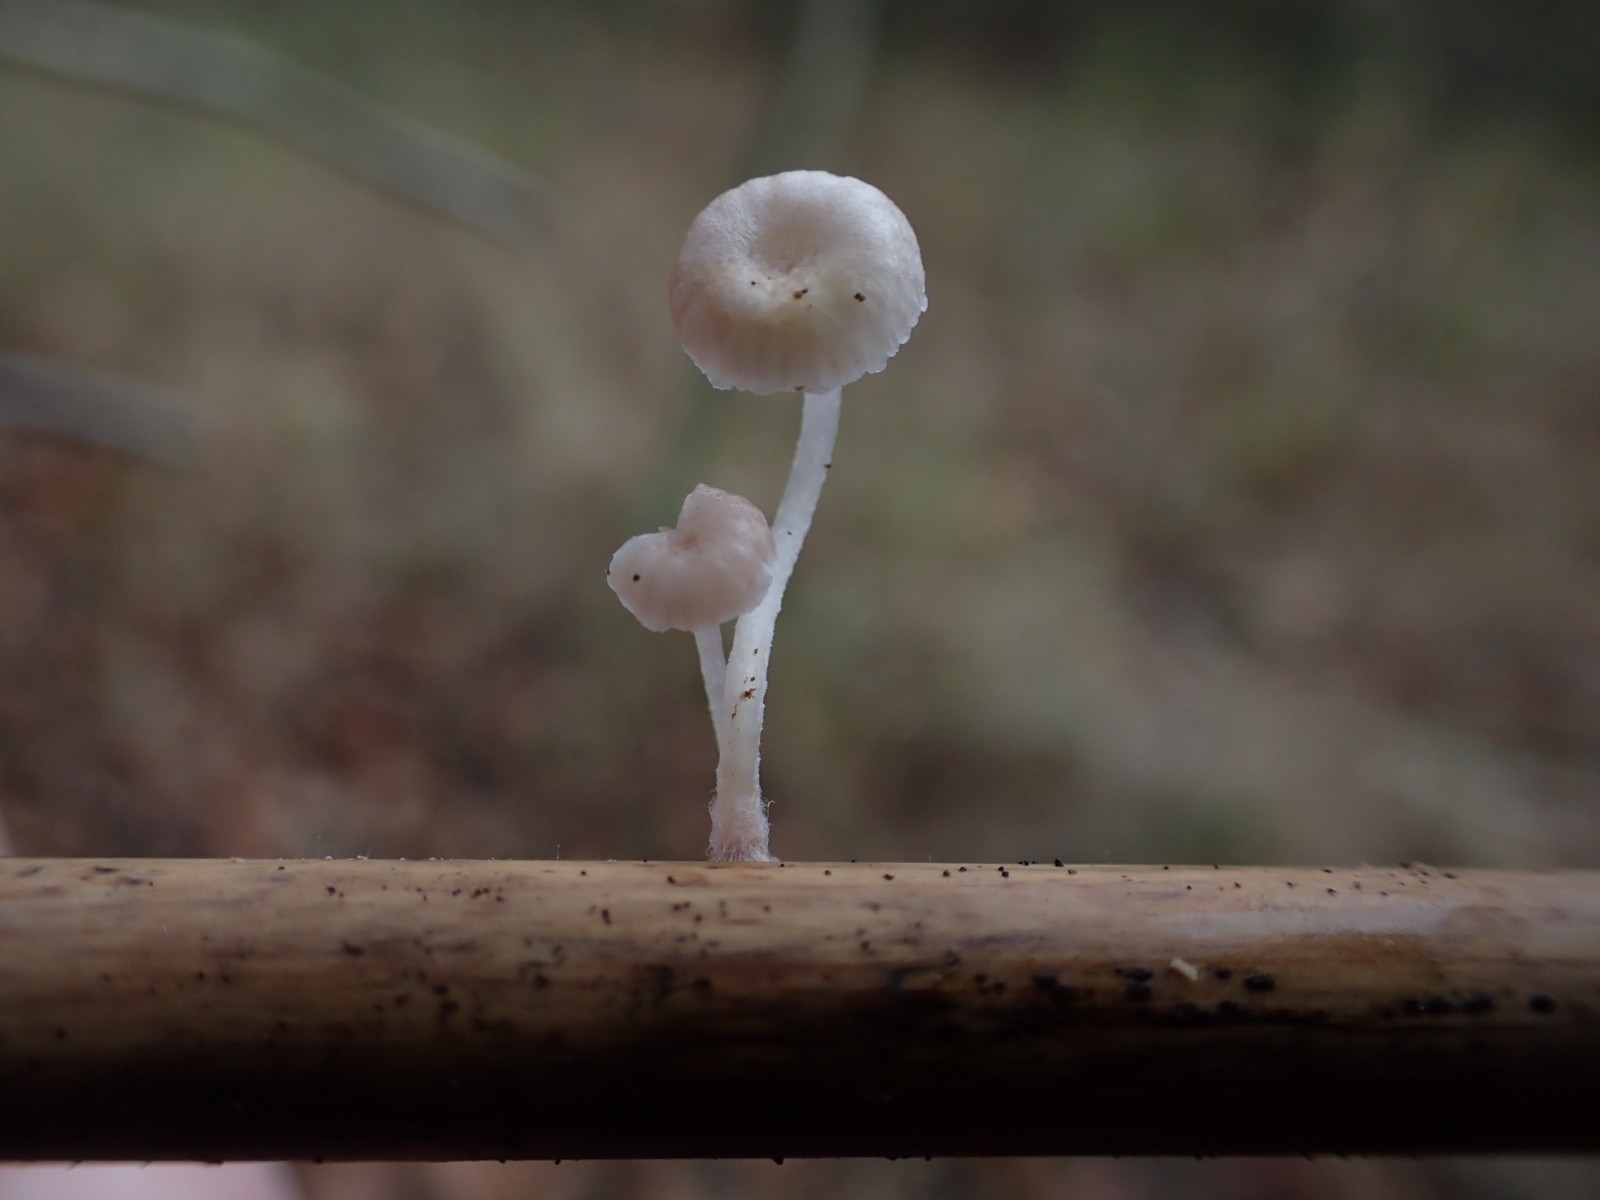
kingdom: Fungi
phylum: Basidiomycota
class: Agaricomycetes
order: Agaricales
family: Mycenaceae
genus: Mycena
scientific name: Mycena belliae
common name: tagrørs-huesvamp
